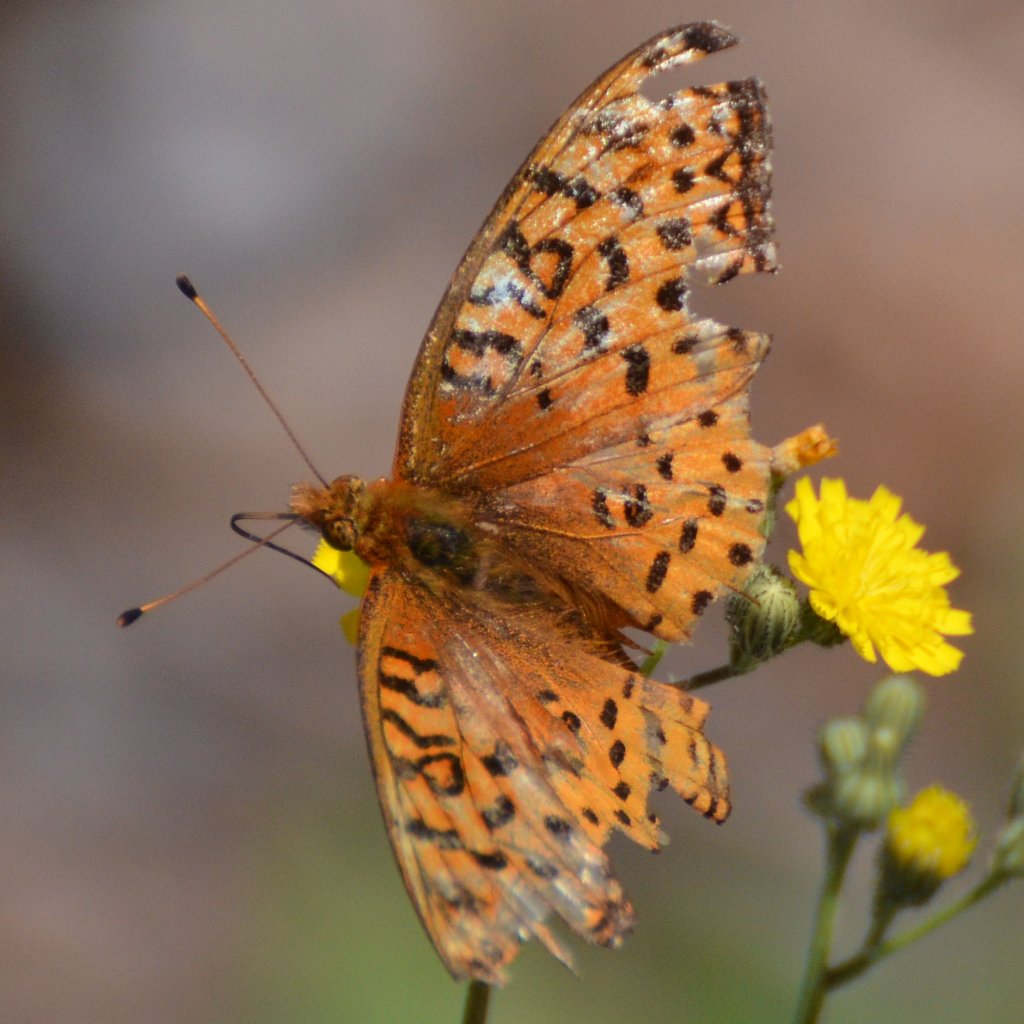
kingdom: Animalia
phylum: Arthropoda
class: Insecta
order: Lepidoptera
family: Nymphalidae
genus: Speyeria
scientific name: Speyeria aphrodite
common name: Aphrodite Fritillary
